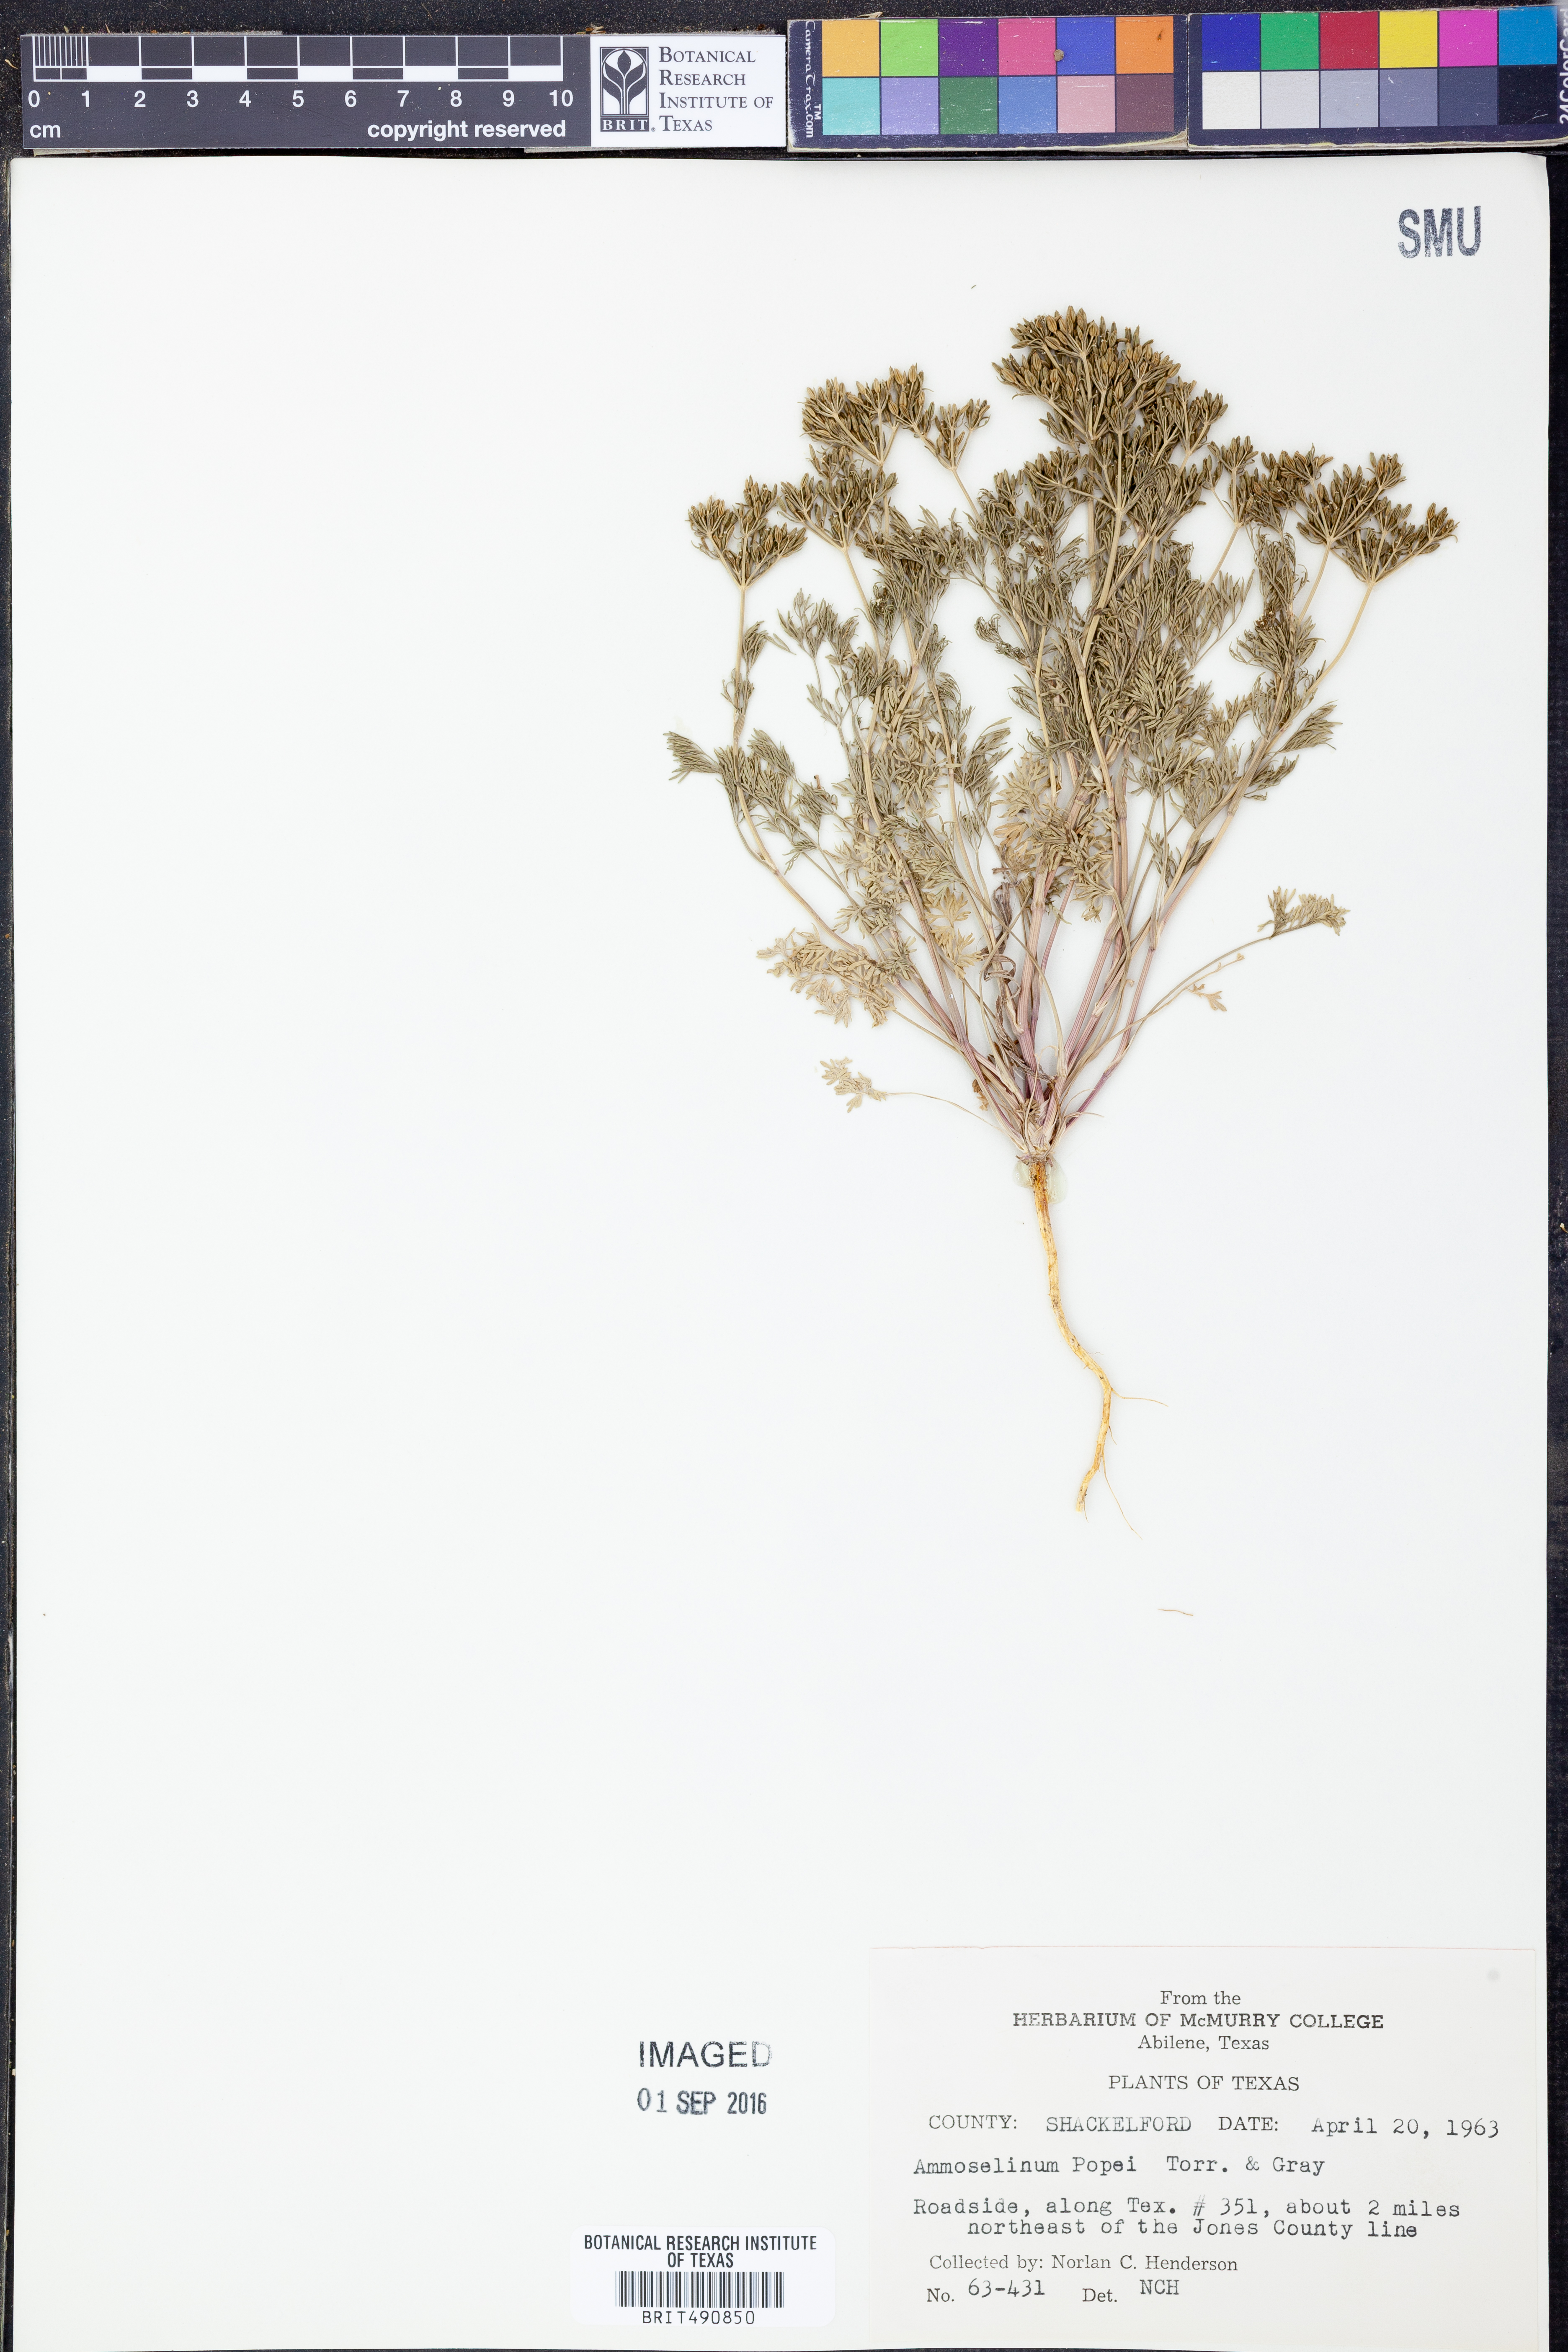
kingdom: Plantae
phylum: Tracheophyta
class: Magnoliopsida
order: Apiales
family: Apiaceae
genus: Ammoselinum
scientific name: Ammoselinum popei
